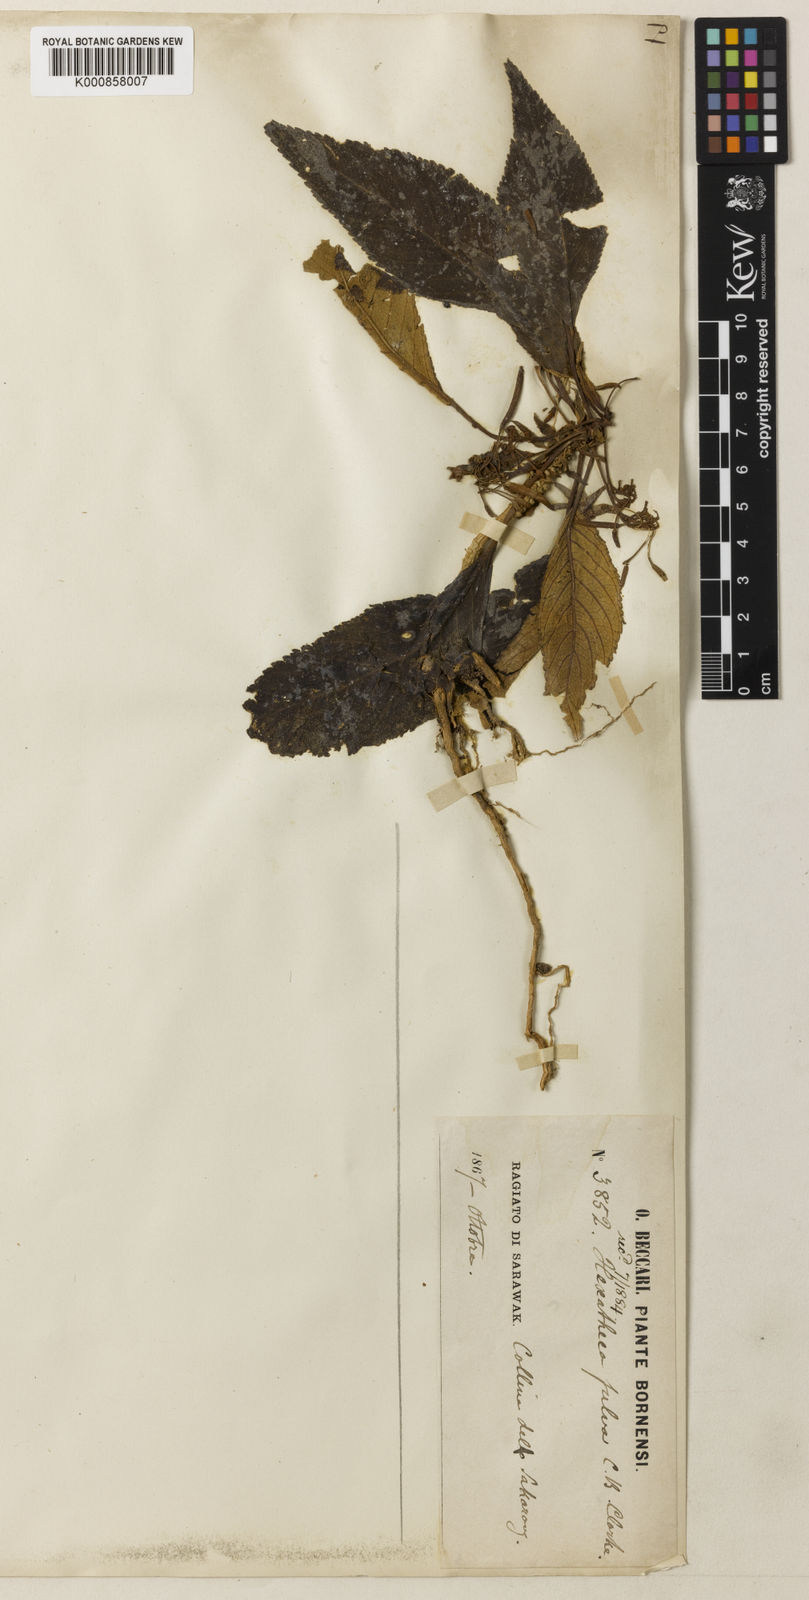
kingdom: Plantae
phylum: Tracheophyta
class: Magnoliopsida
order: Lamiales
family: Gesneriaceae
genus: Hexatheca
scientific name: Hexatheca fulva
